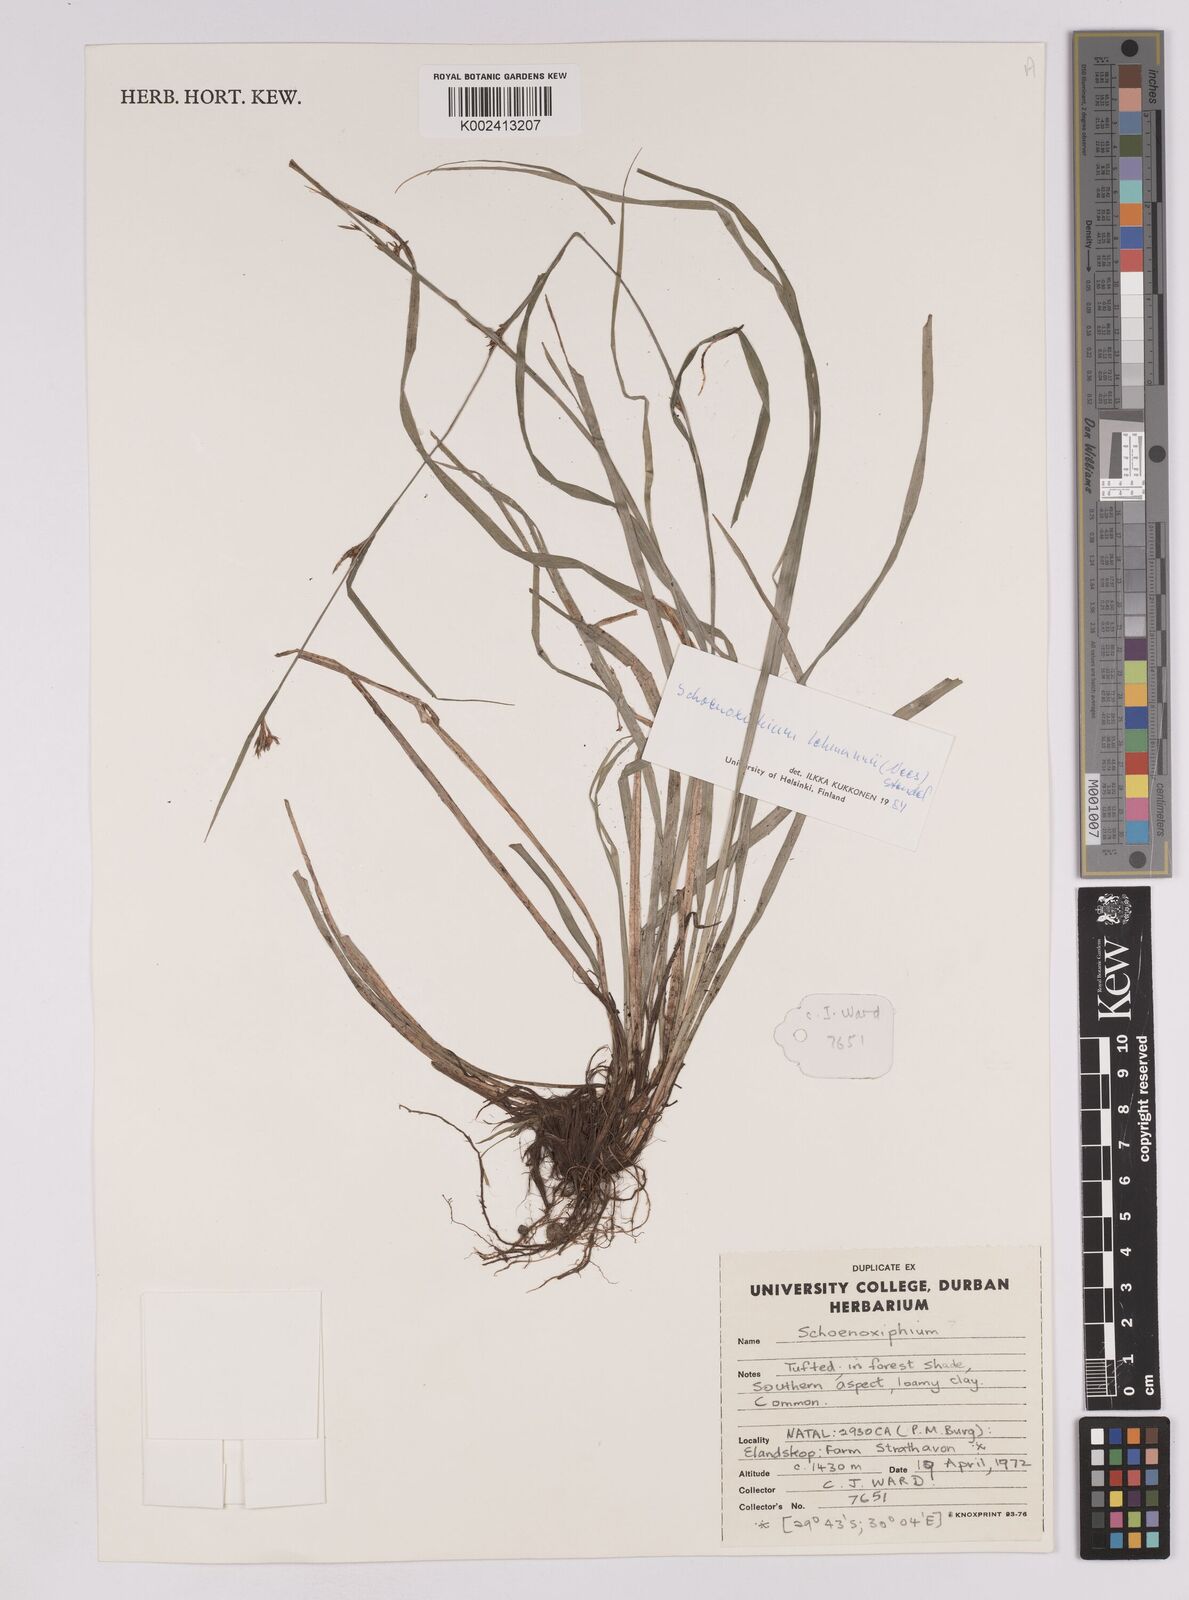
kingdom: Plantae
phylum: Tracheophyta
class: Liliopsida
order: Poales
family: Cyperaceae
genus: Carex
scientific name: Carex uhligii
